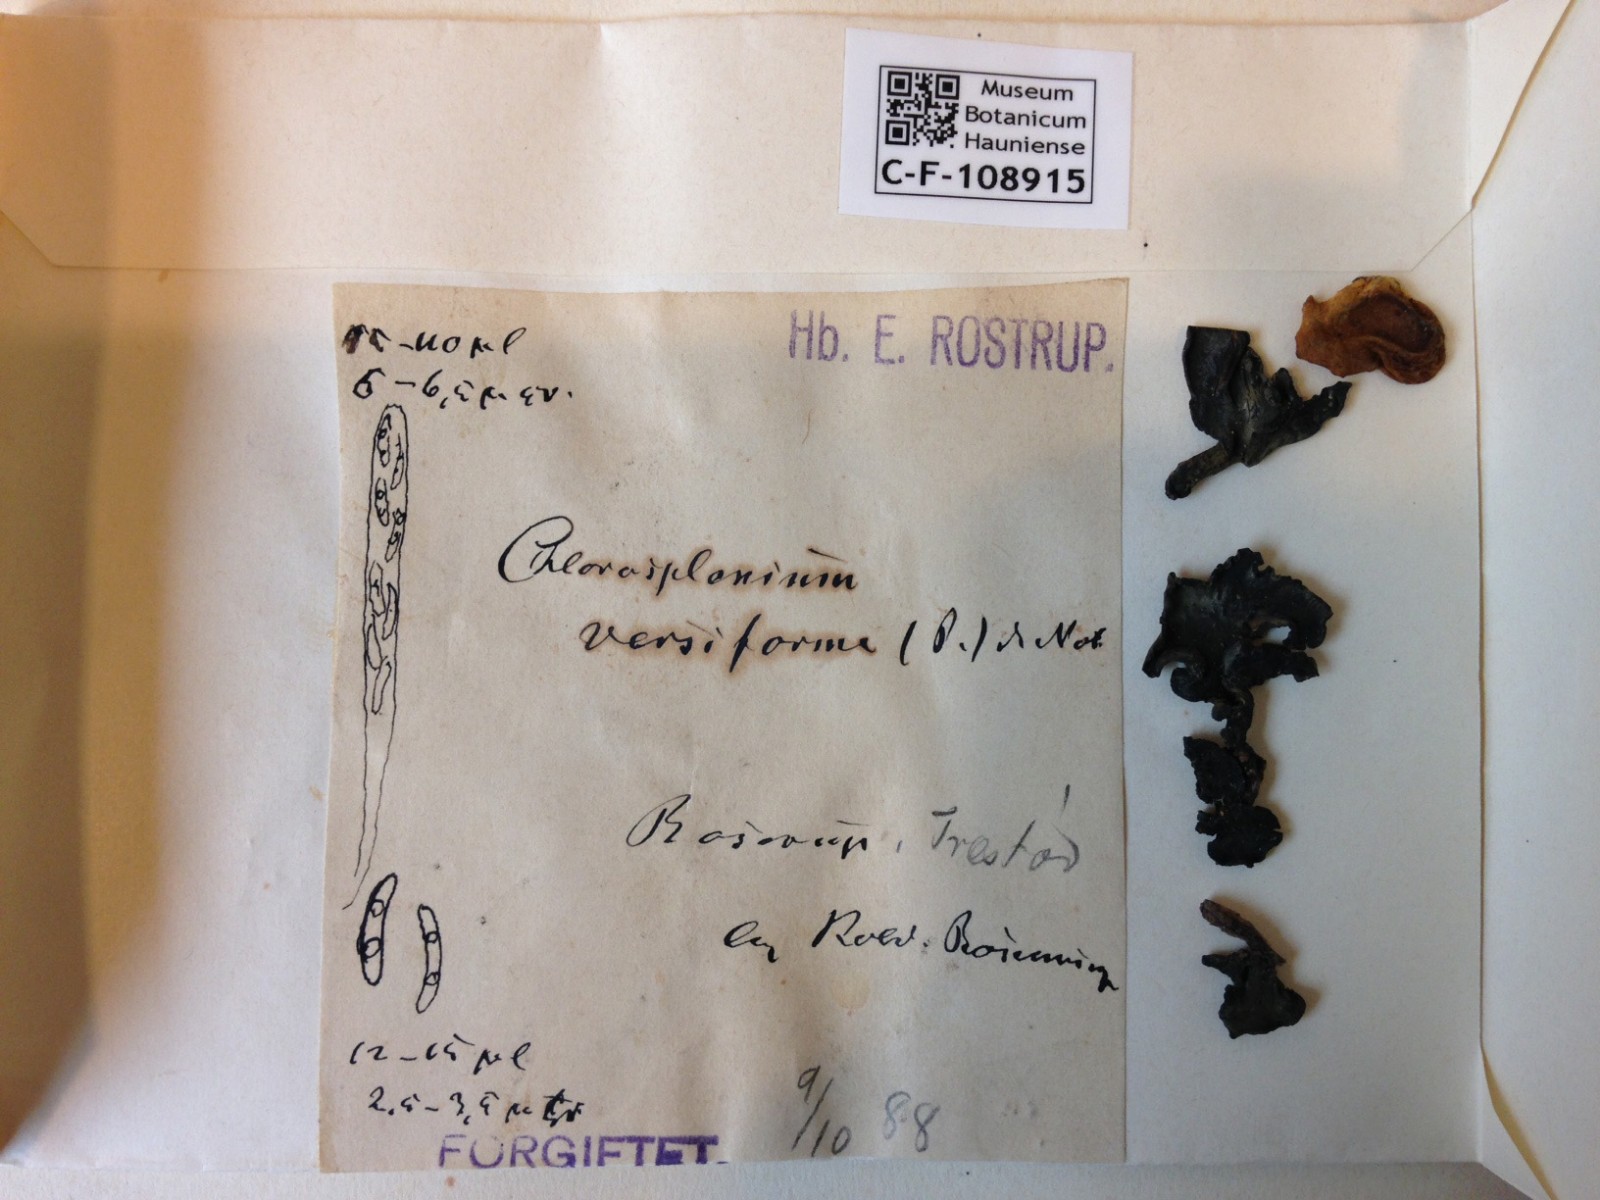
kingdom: Fungi
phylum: Ascomycota
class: Leotiomycetes
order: Helotiales
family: Cenangiaceae
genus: Chlorencoelia
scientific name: Chlorencoelia versiformis
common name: gullig grønskive
